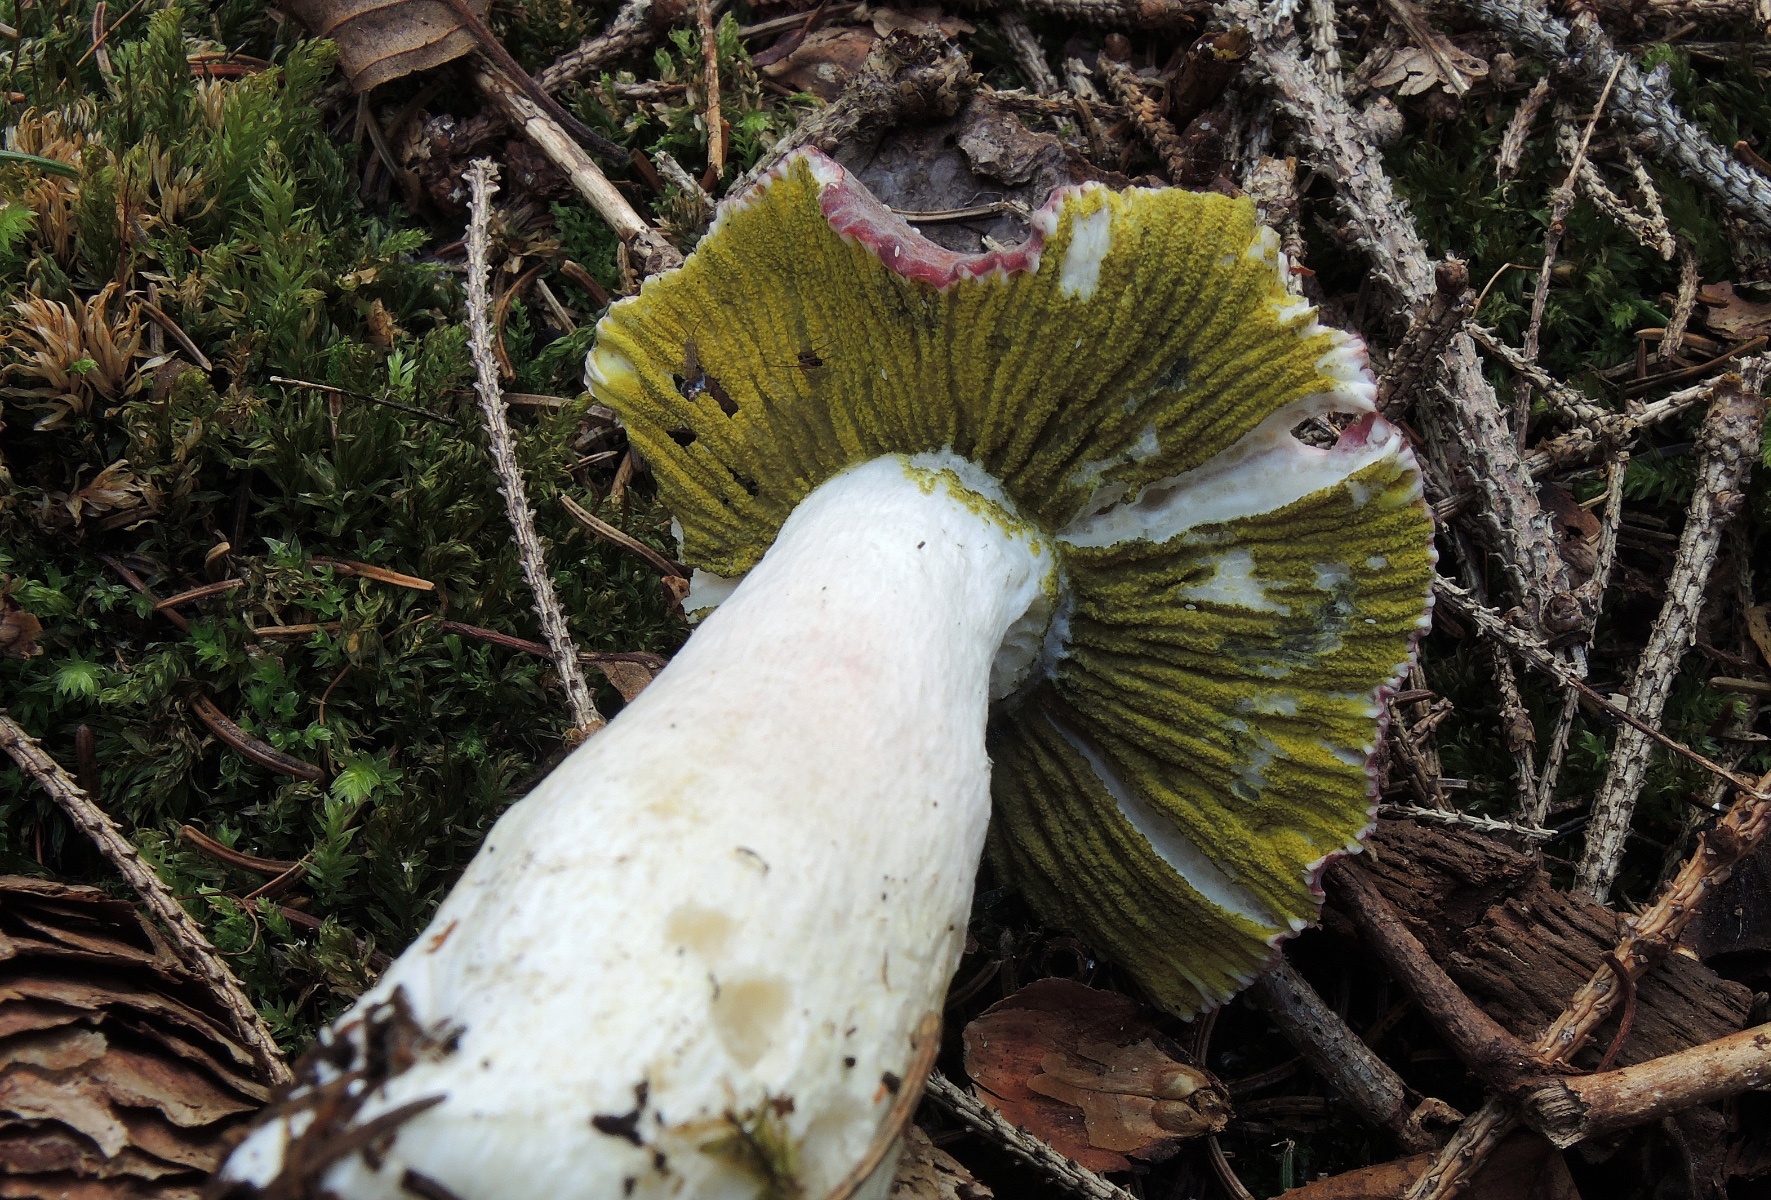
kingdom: Fungi
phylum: Ascomycota
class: Sordariomycetes
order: Hypocreales
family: Hypocreaceae
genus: Hypomyces
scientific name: Hypomyces luteovirens
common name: gulgrøn snylteskorpe
